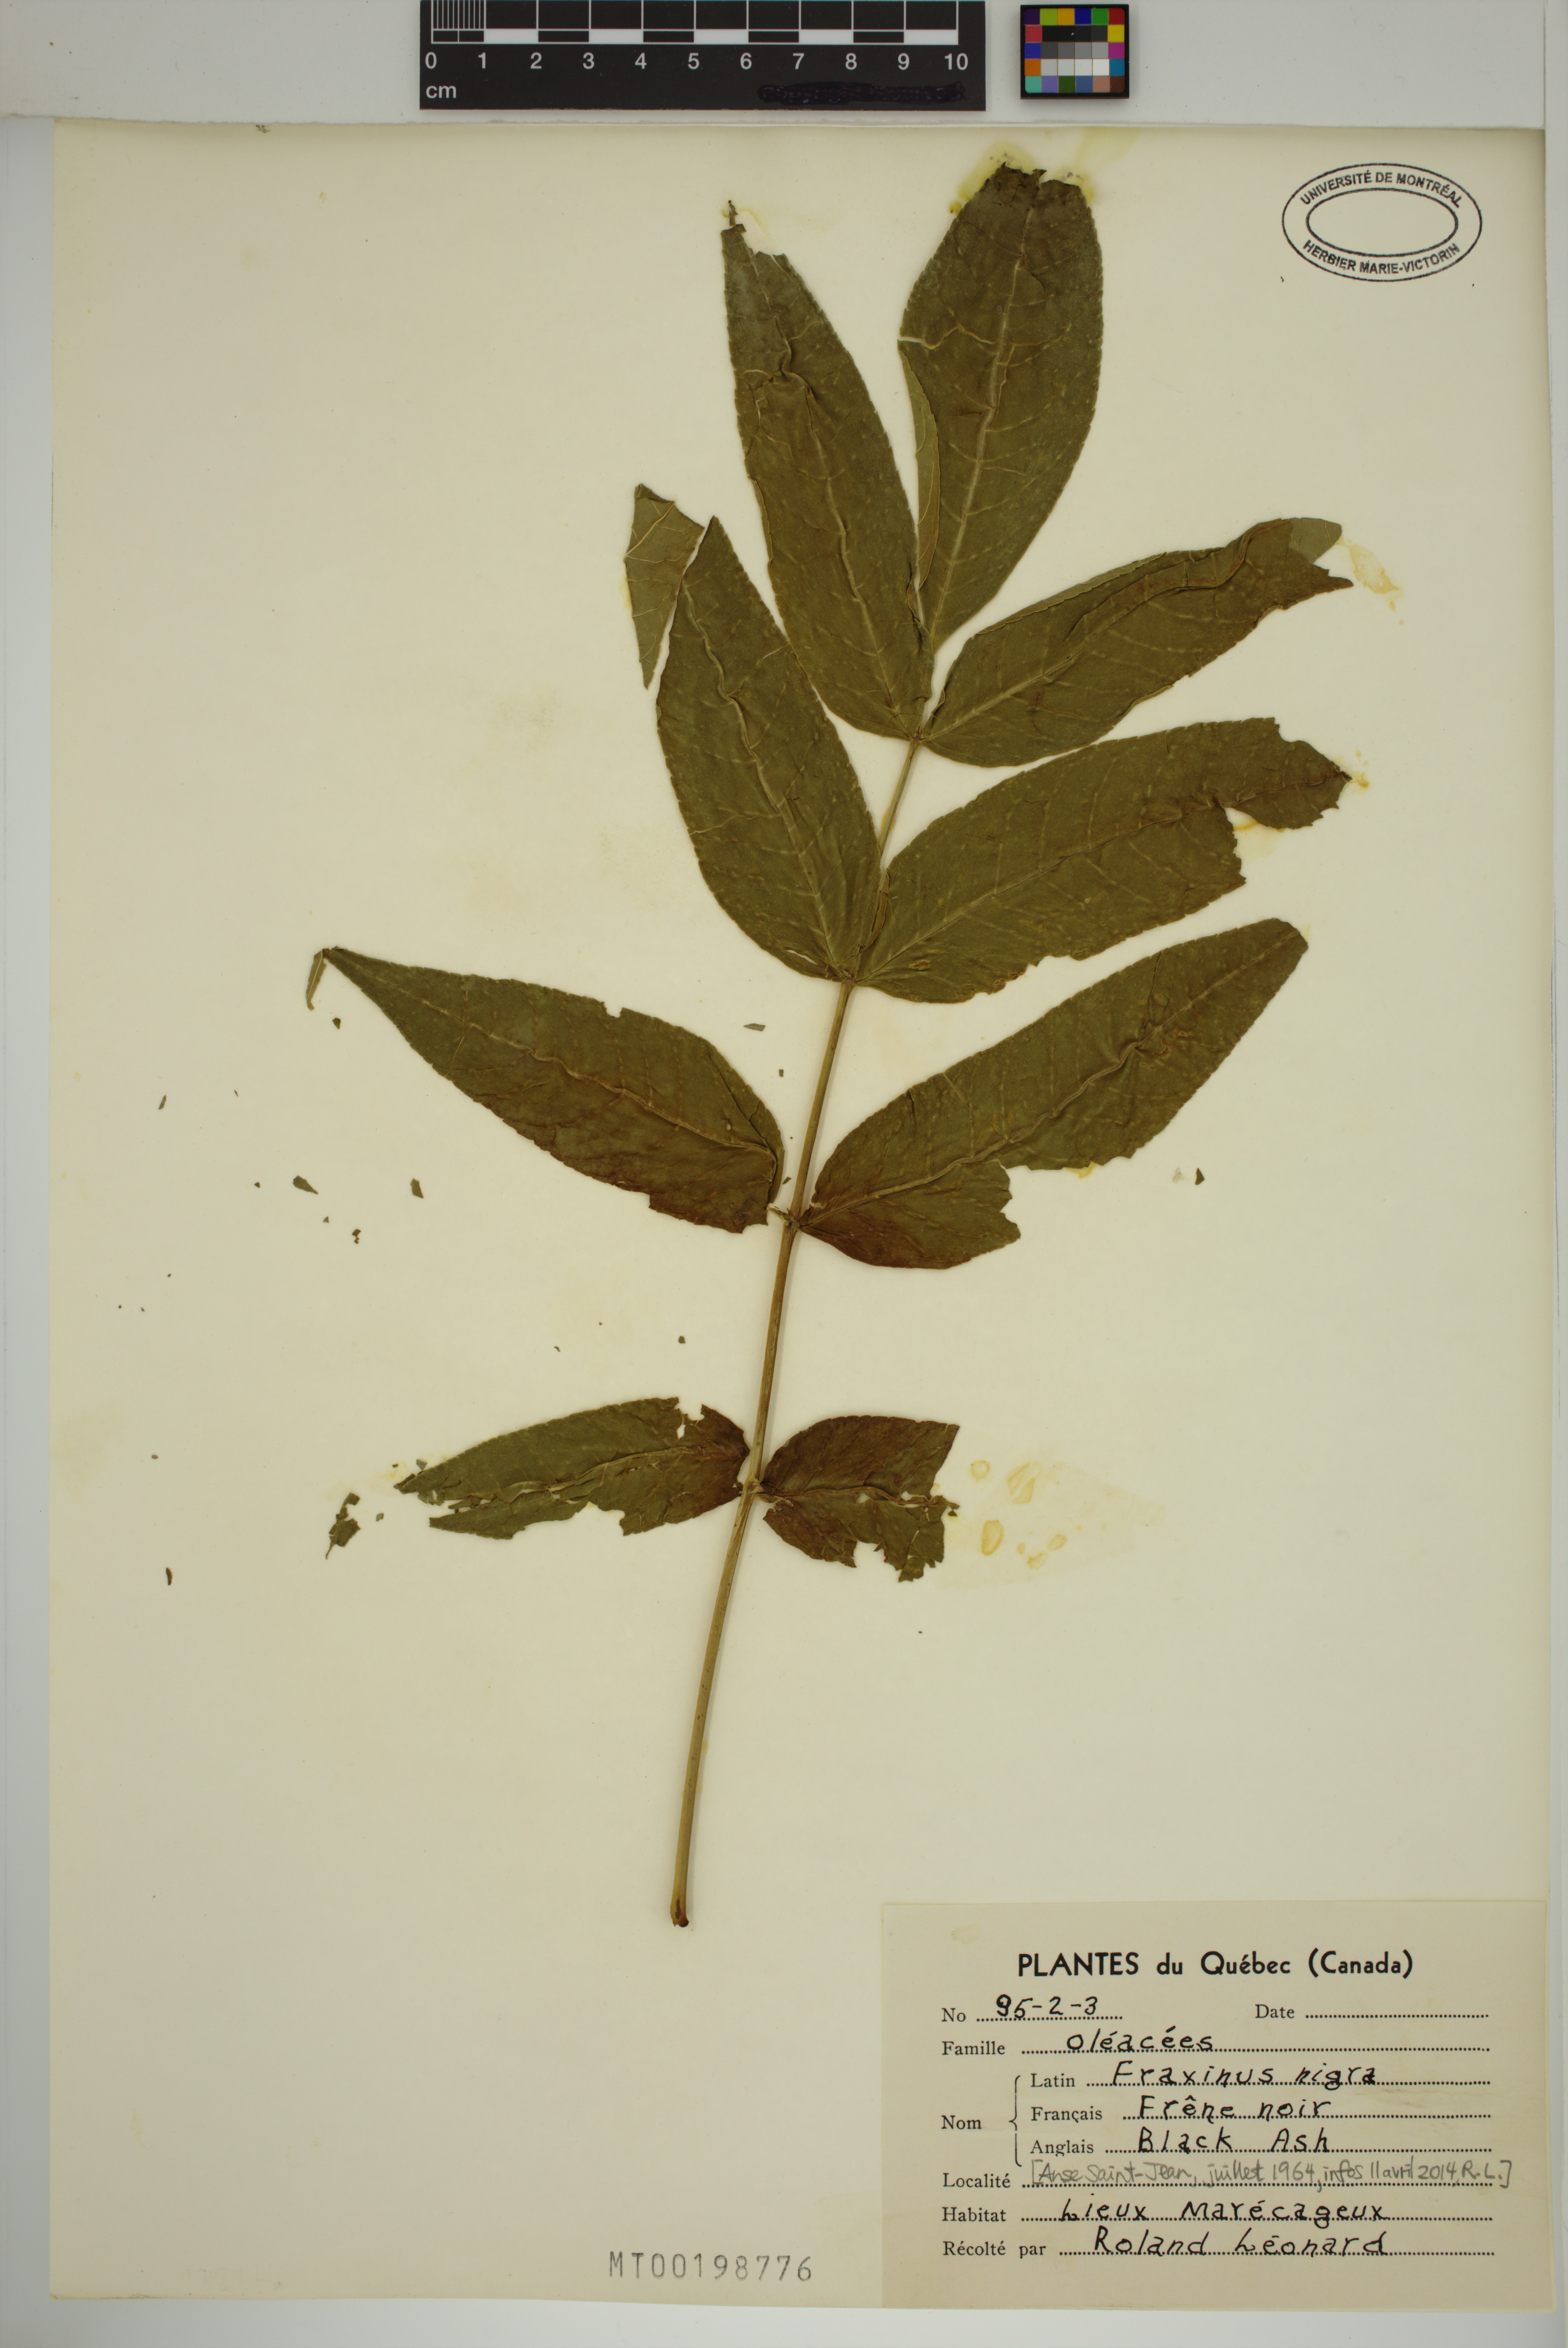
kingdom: Plantae
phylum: Tracheophyta
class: Magnoliopsida
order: Lamiales
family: Oleaceae
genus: Fraxinus
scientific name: Fraxinus nigra
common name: Black ash
